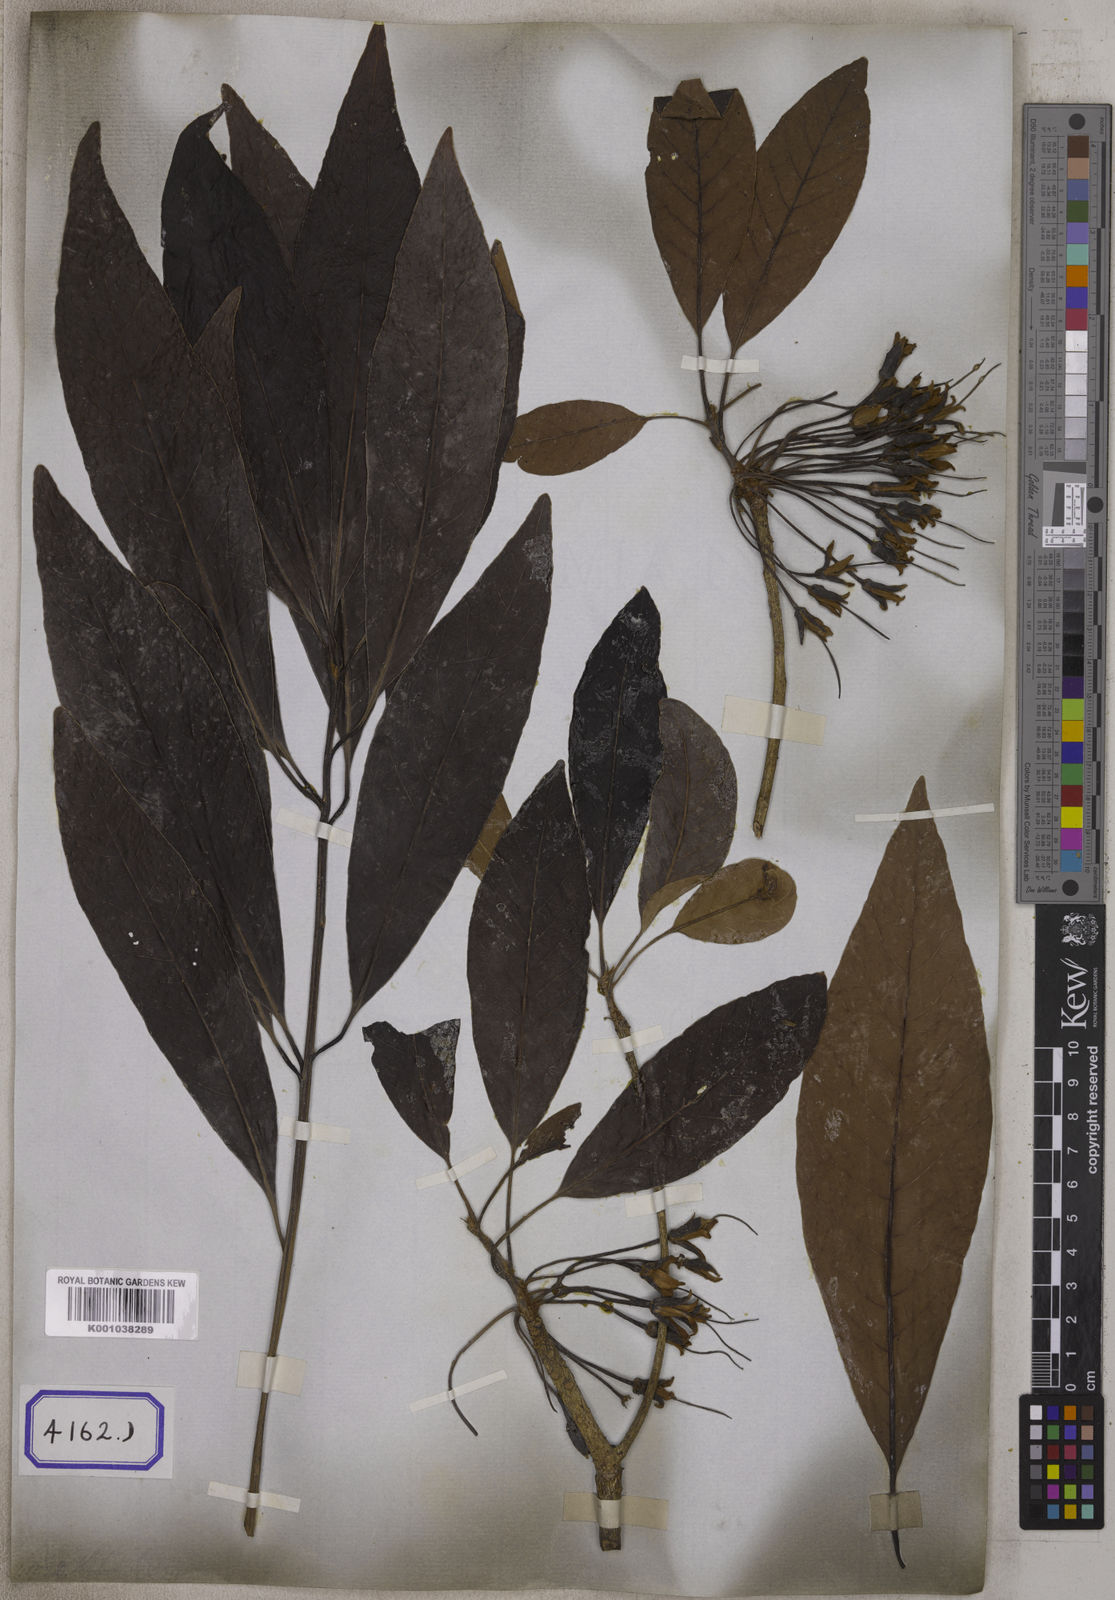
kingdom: Plantae
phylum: Tracheophyta
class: Magnoliopsida
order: Ericales
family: Sapotaceae
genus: Madhuca
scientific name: Madhuca longifolia
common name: Mowra-buttertree
